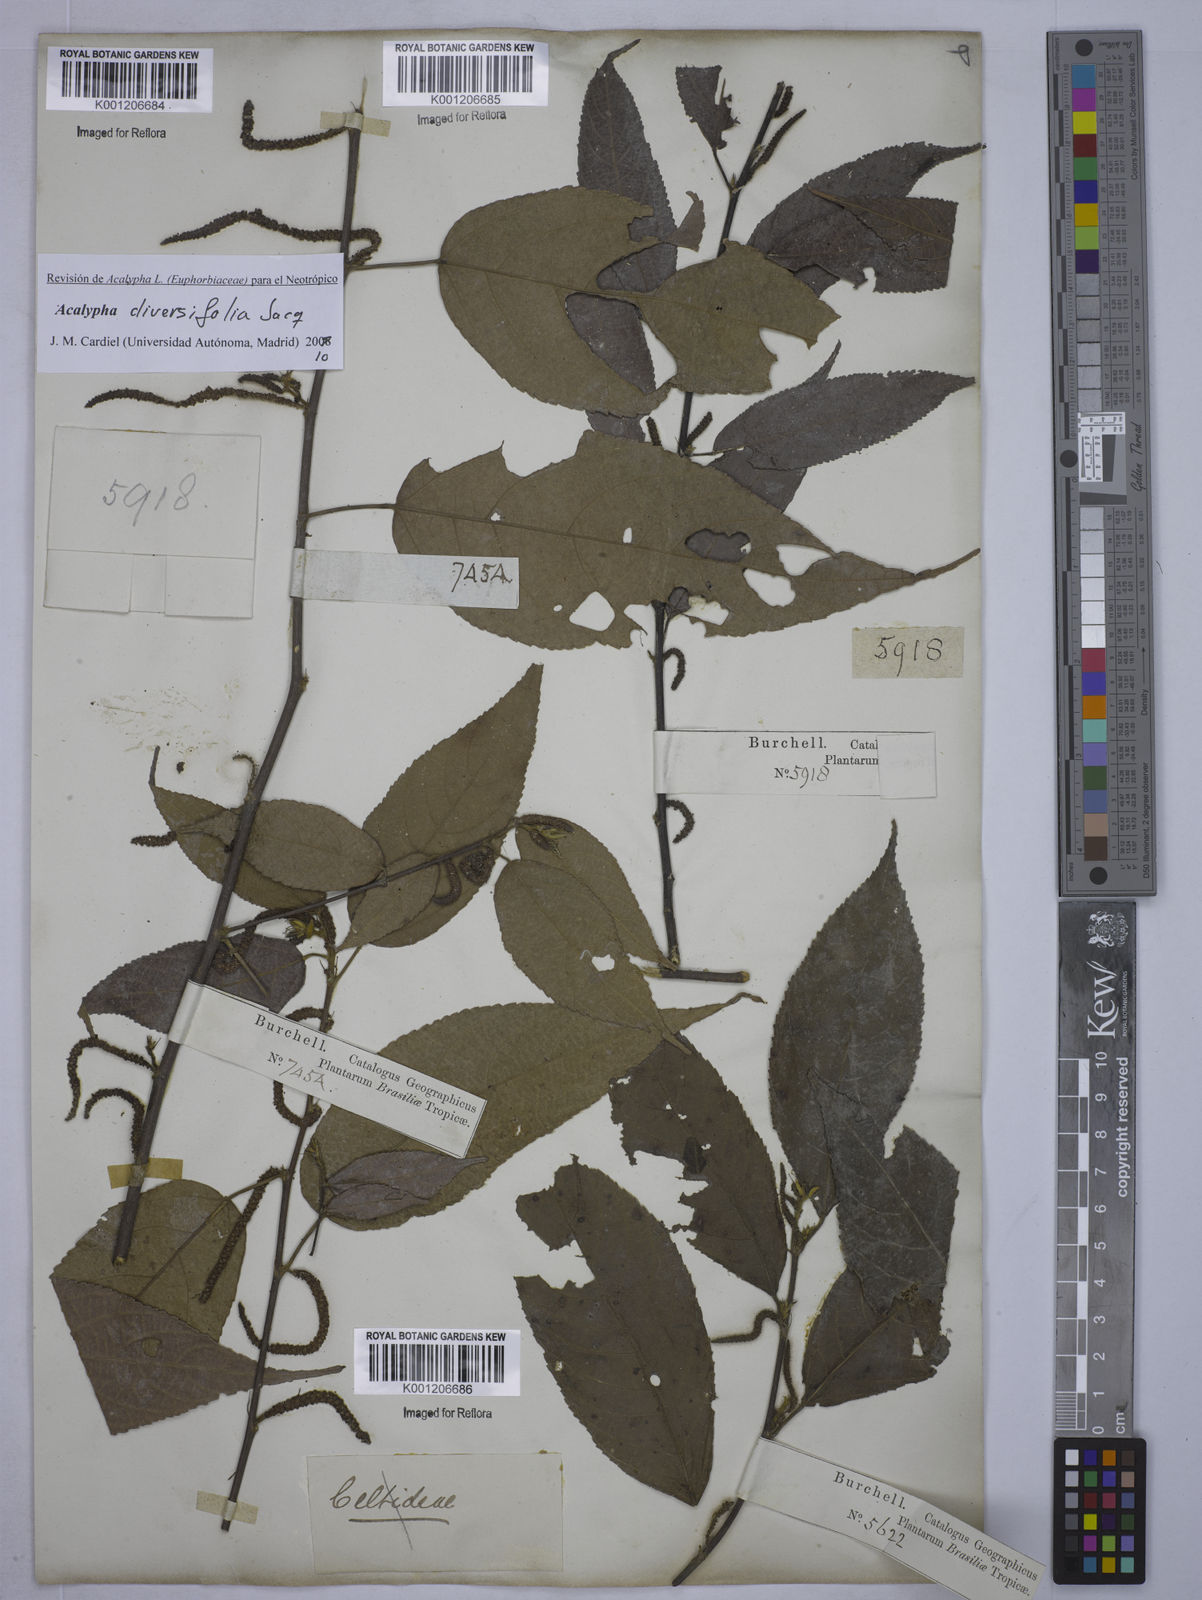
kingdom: Plantae
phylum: Tracheophyta
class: Magnoliopsida
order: Malpighiales
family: Euphorbiaceae
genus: Acalypha
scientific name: Acalypha diversifolia
